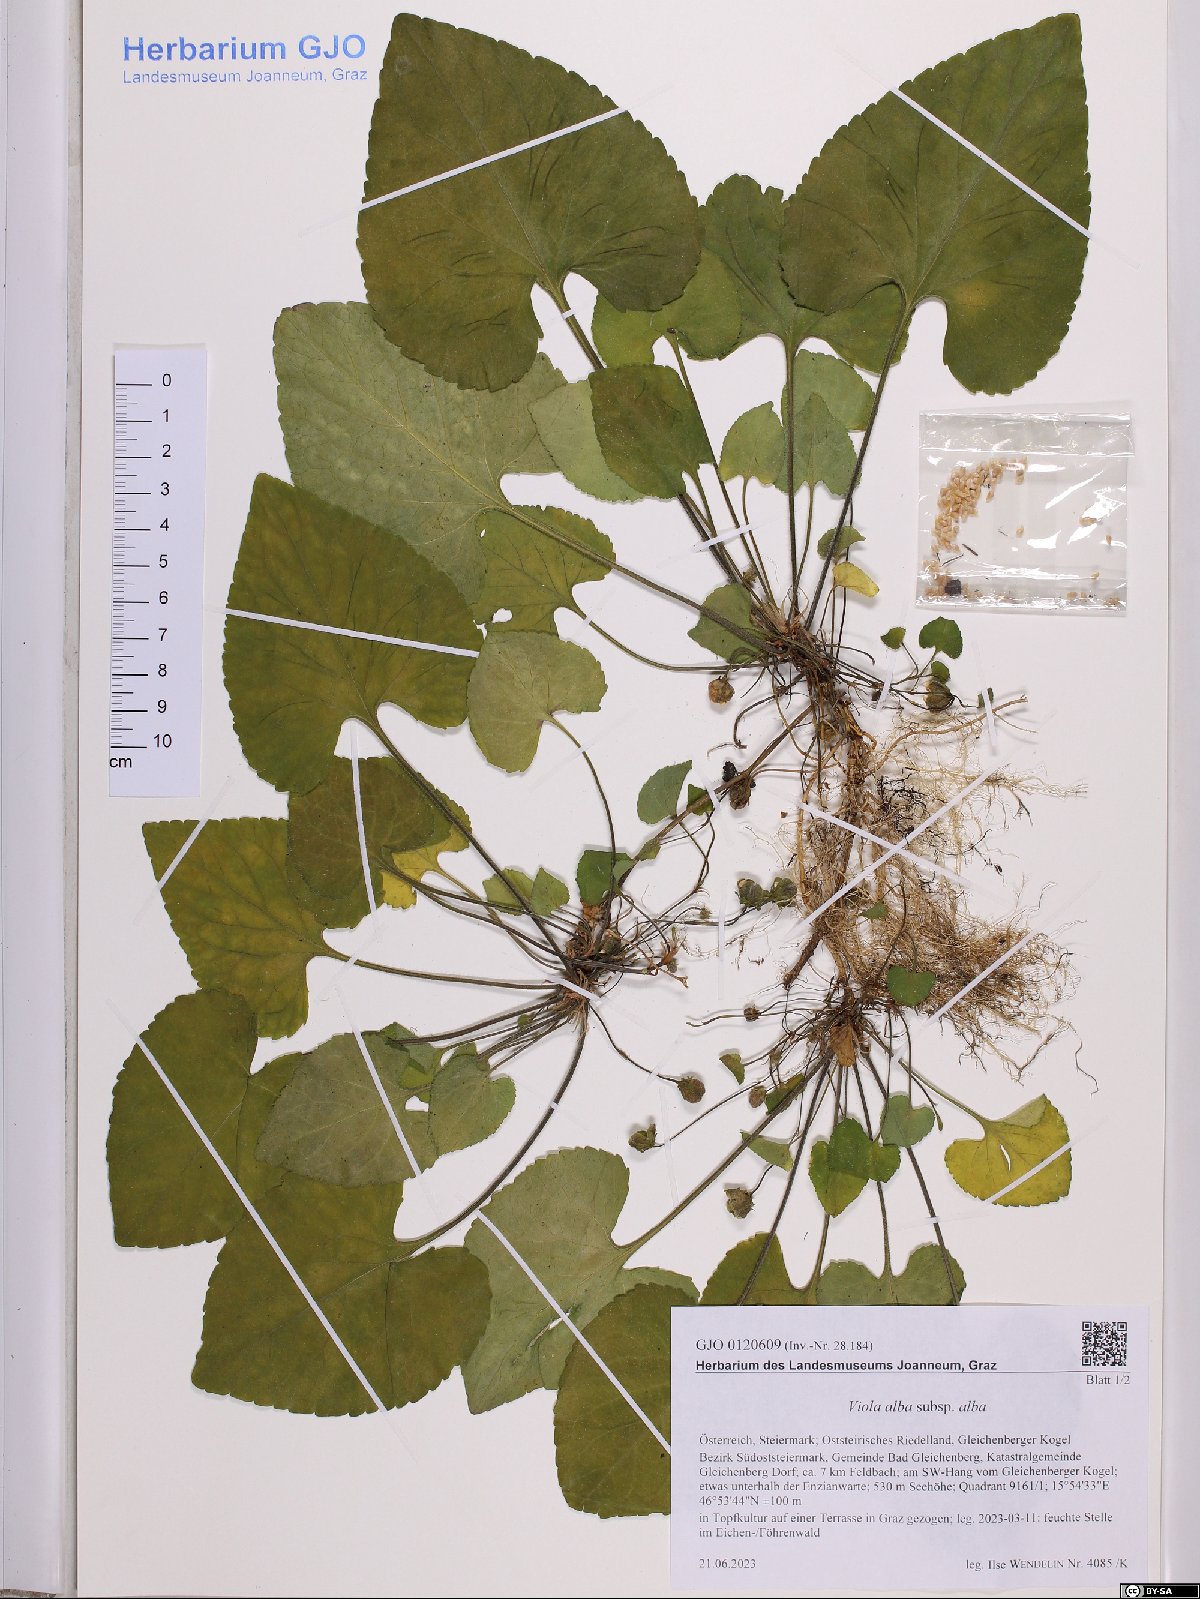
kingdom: Plantae
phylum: Tracheophyta
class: Magnoliopsida
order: Malpighiales
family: Violaceae
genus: Viola
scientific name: Viola alba
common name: White violet
